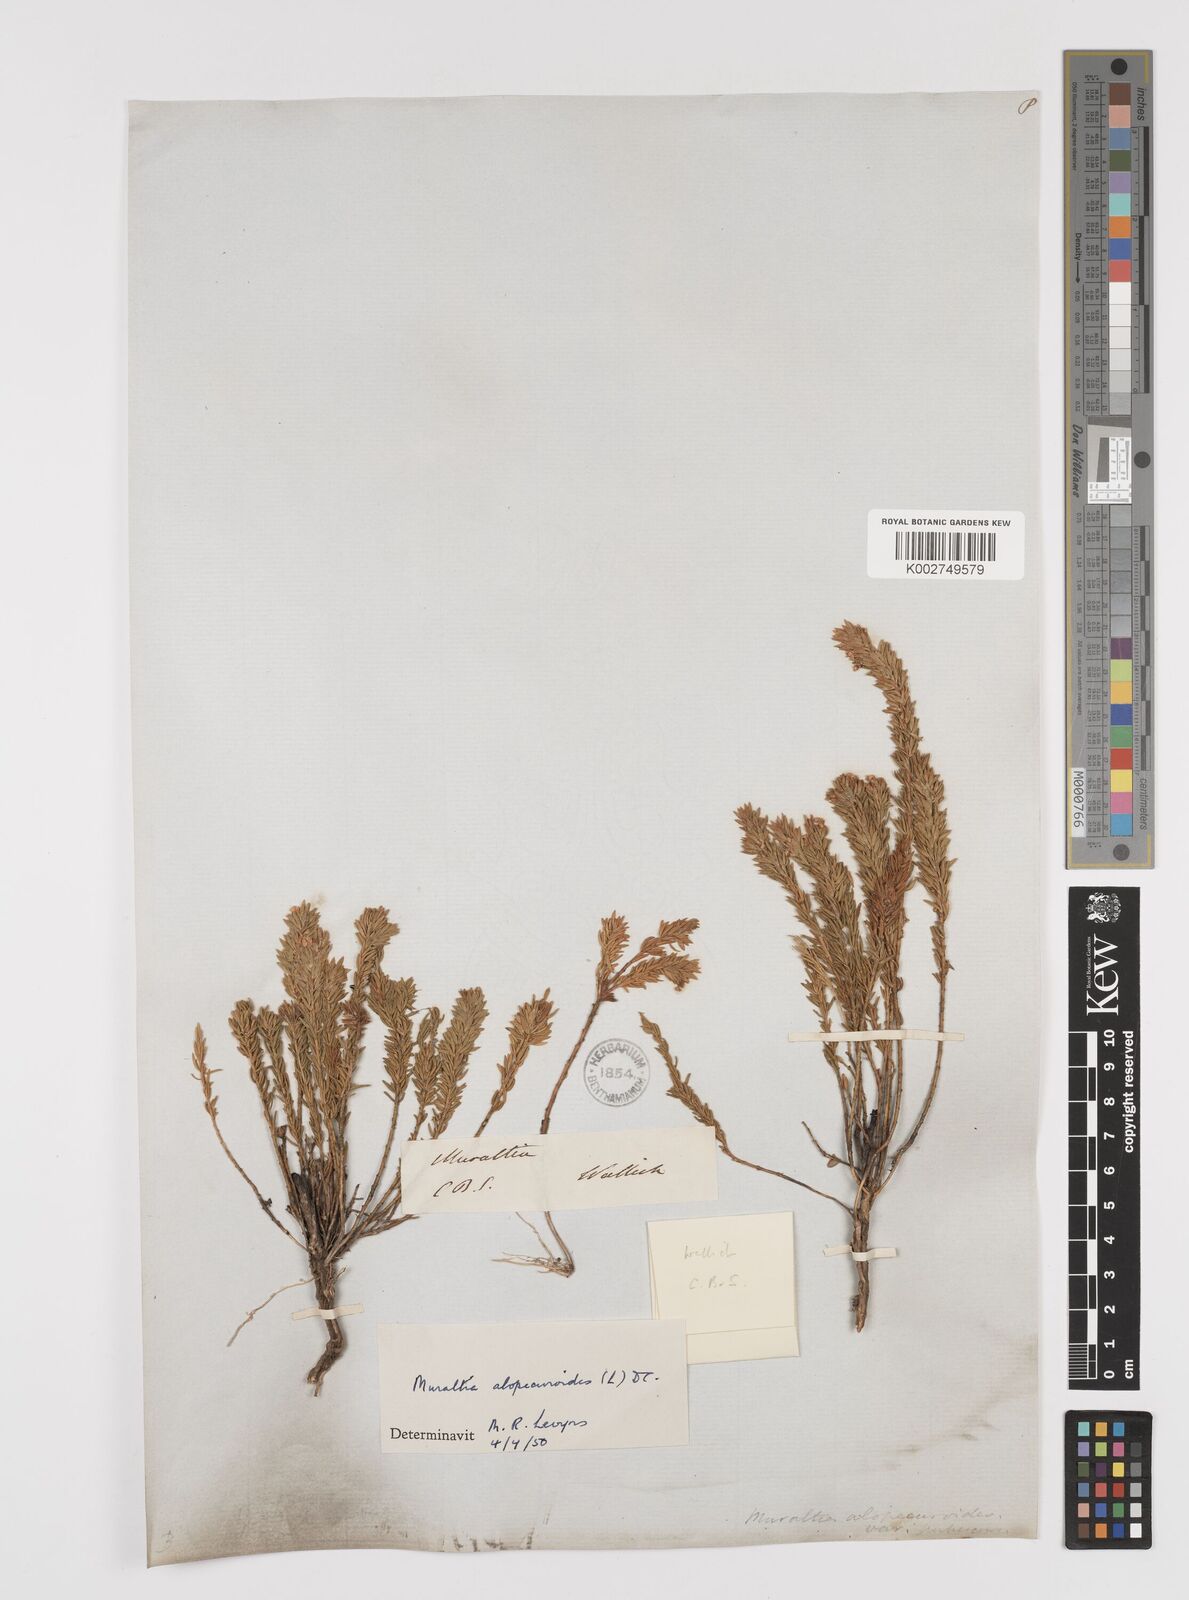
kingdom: Plantae
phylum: Tracheophyta
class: Magnoliopsida
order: Fabales
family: Polygalaceae
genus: Muraltia
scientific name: Muraltia alopecuroides
